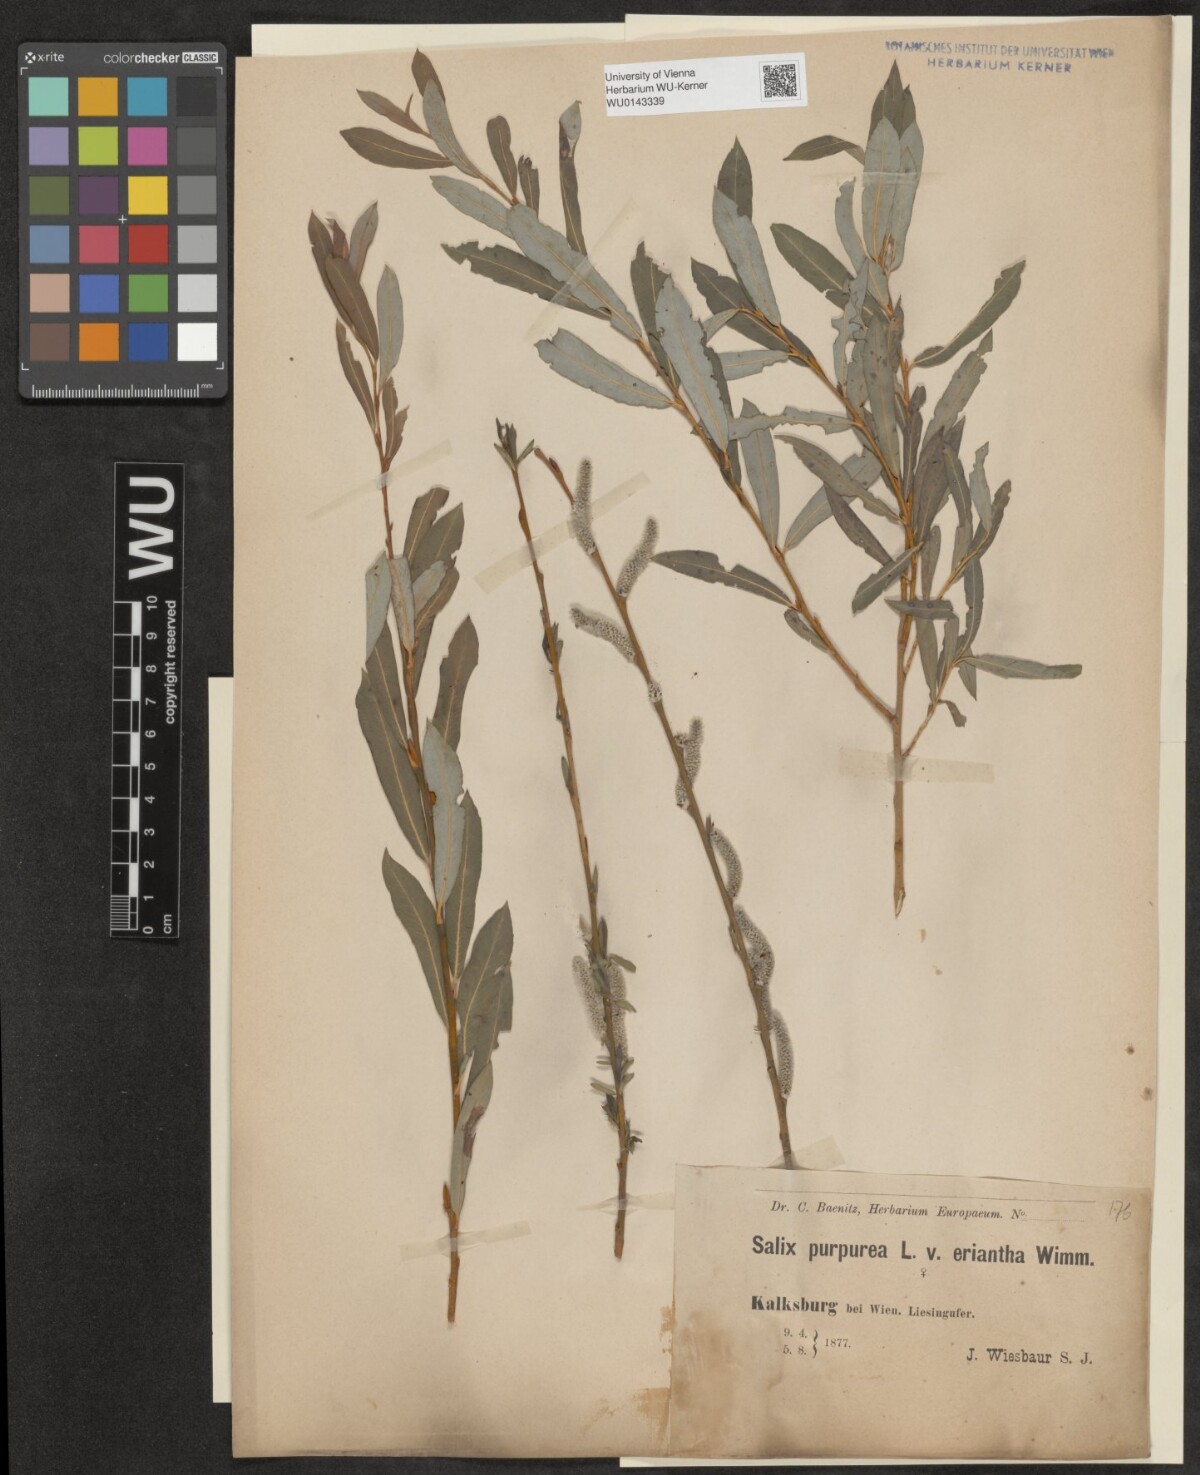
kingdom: Plantae
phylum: Tracheophyta
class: Magnoliopsida
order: Malpighiales
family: Salicaceae
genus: Salix
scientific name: Salix purpurea
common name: Purple willow
